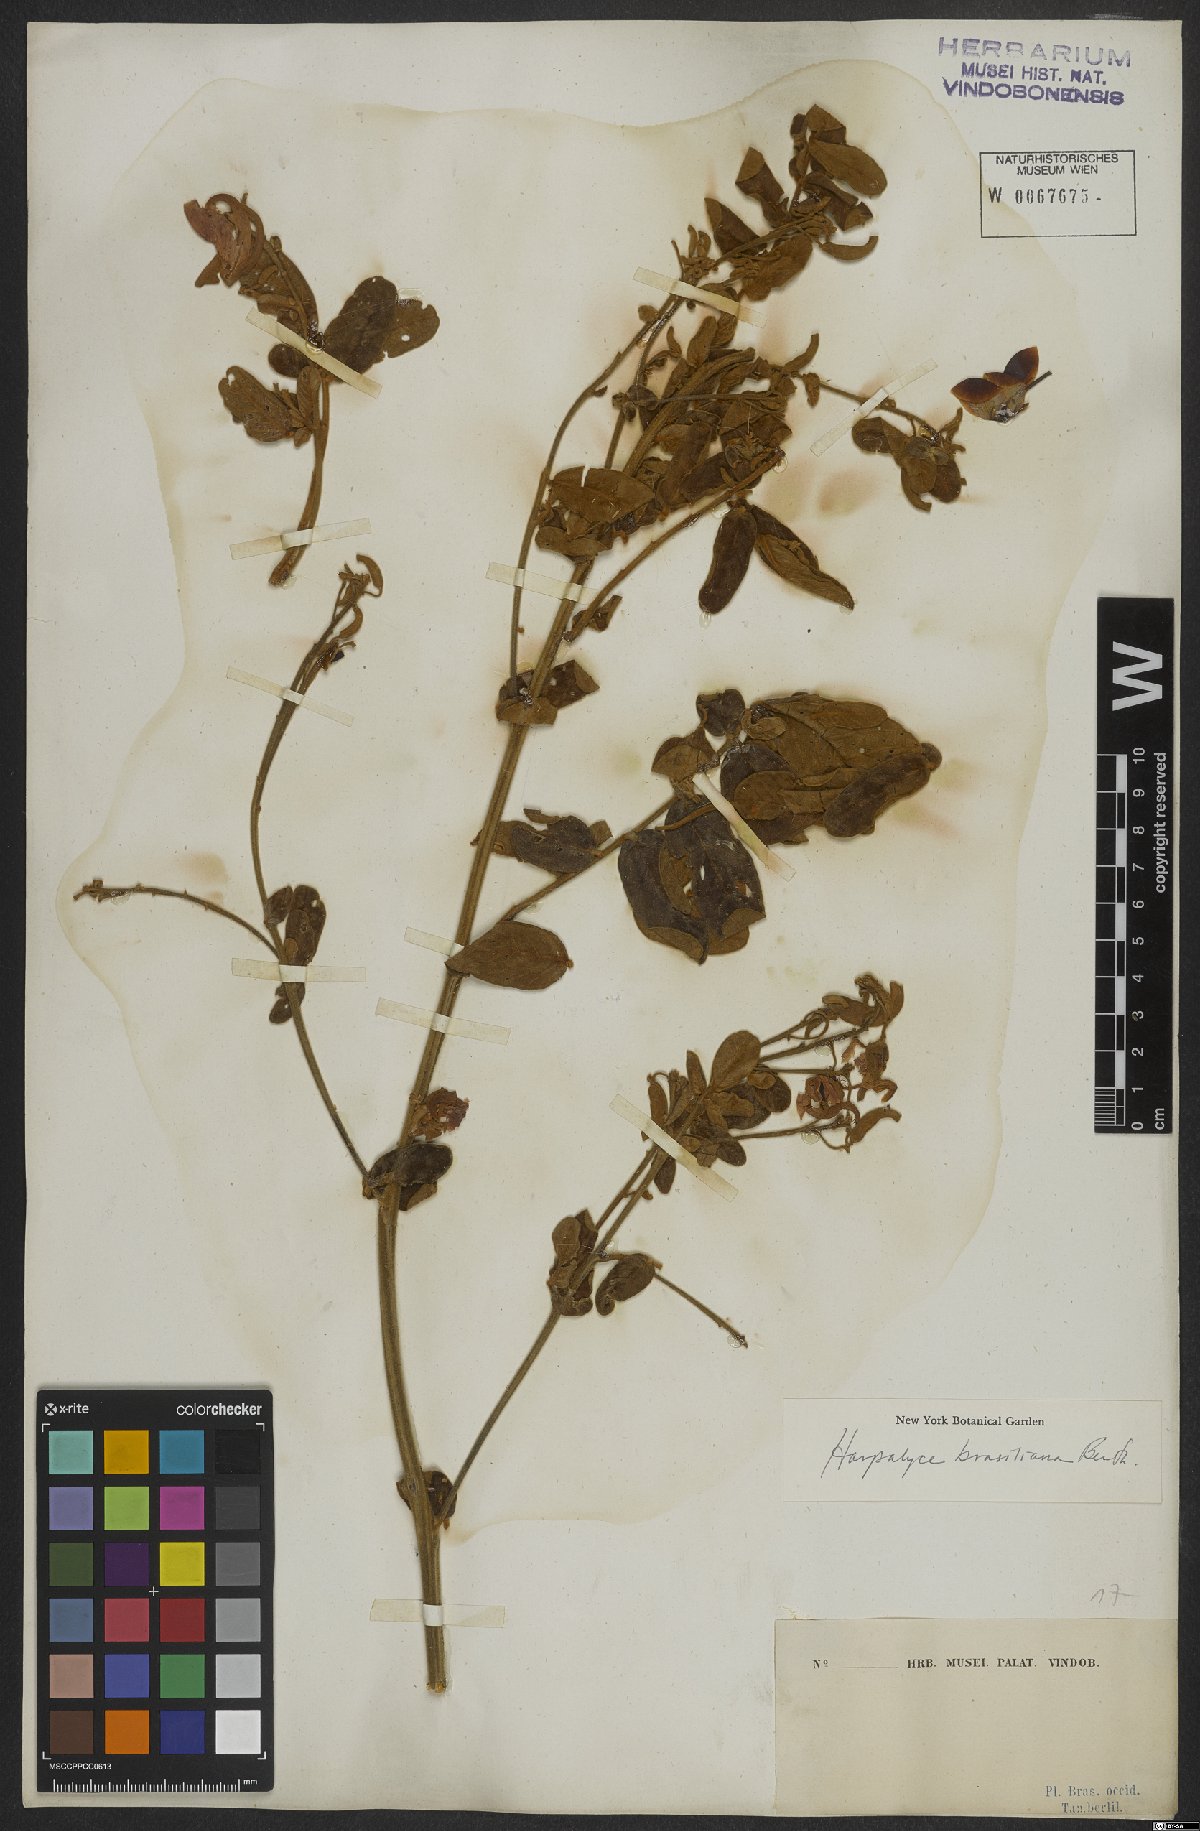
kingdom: Plantae
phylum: Tracheophyta
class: Magnoliopsida
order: Fabales
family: Fabaceae
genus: Harpalyce
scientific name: Harpalyce brasiliana
